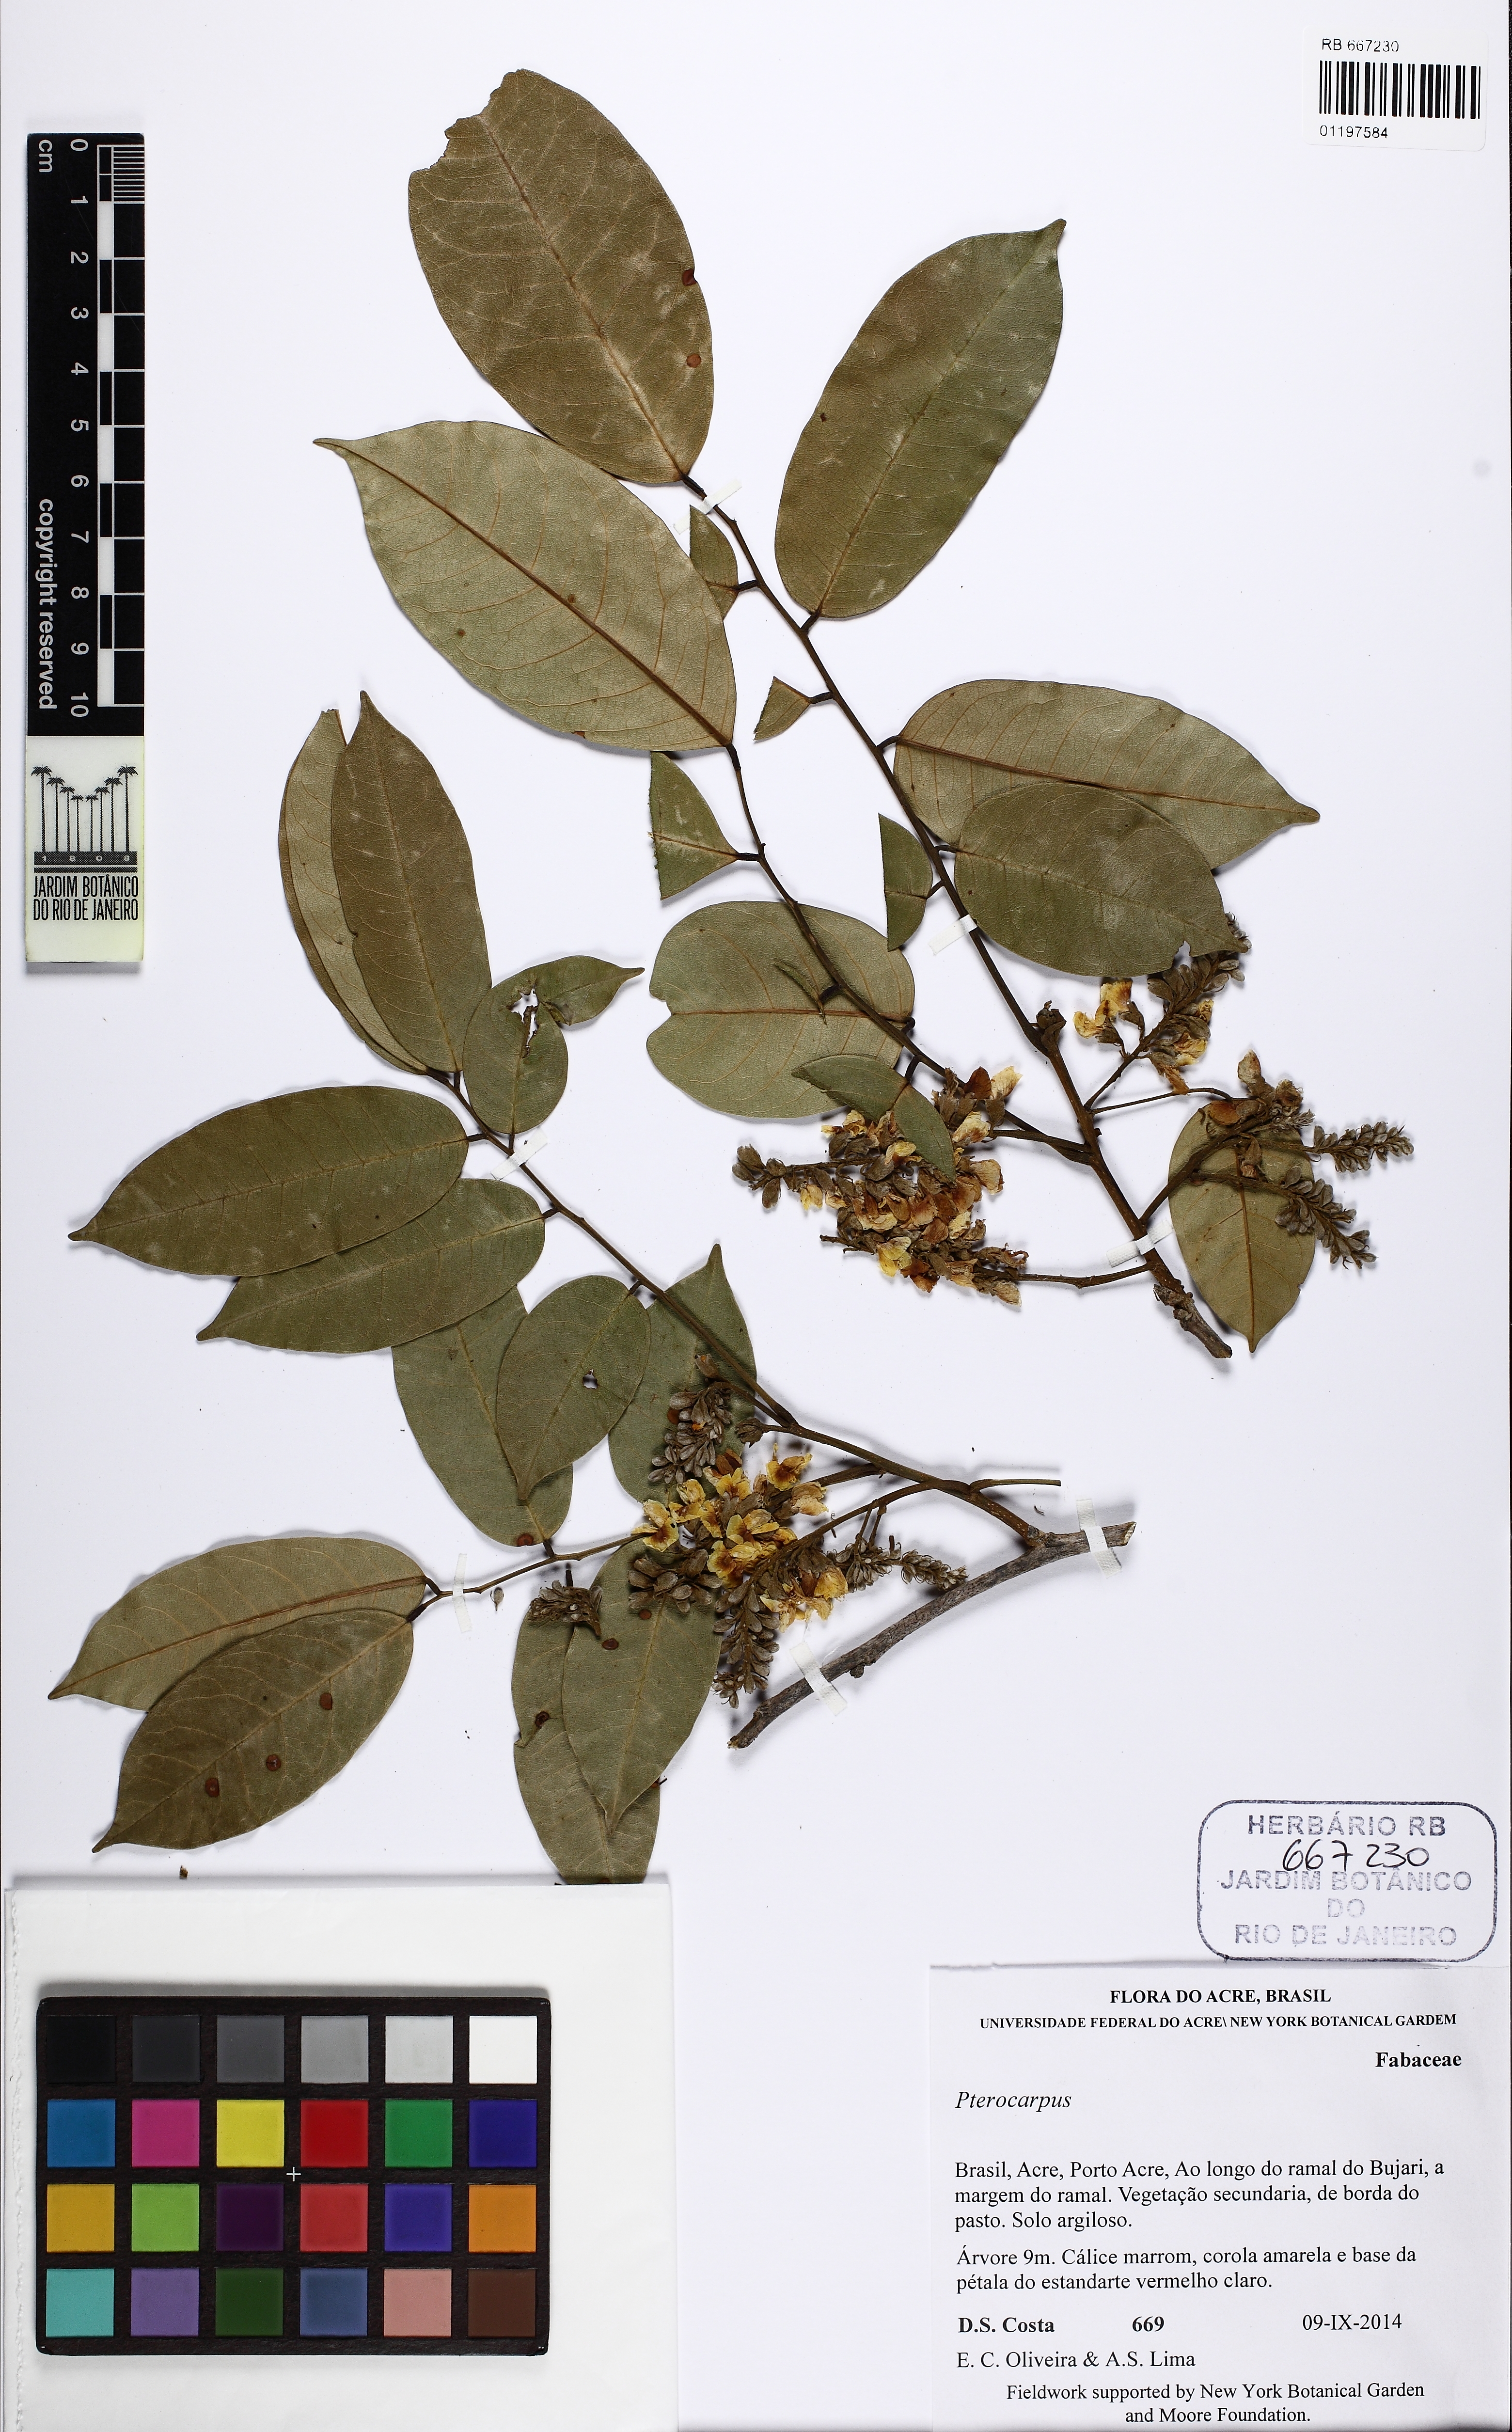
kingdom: Plantae
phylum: Tracheophyta
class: Magnoliopsida
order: Fabales
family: Fabaceae
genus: Pterocarpus
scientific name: Pterocarpus
